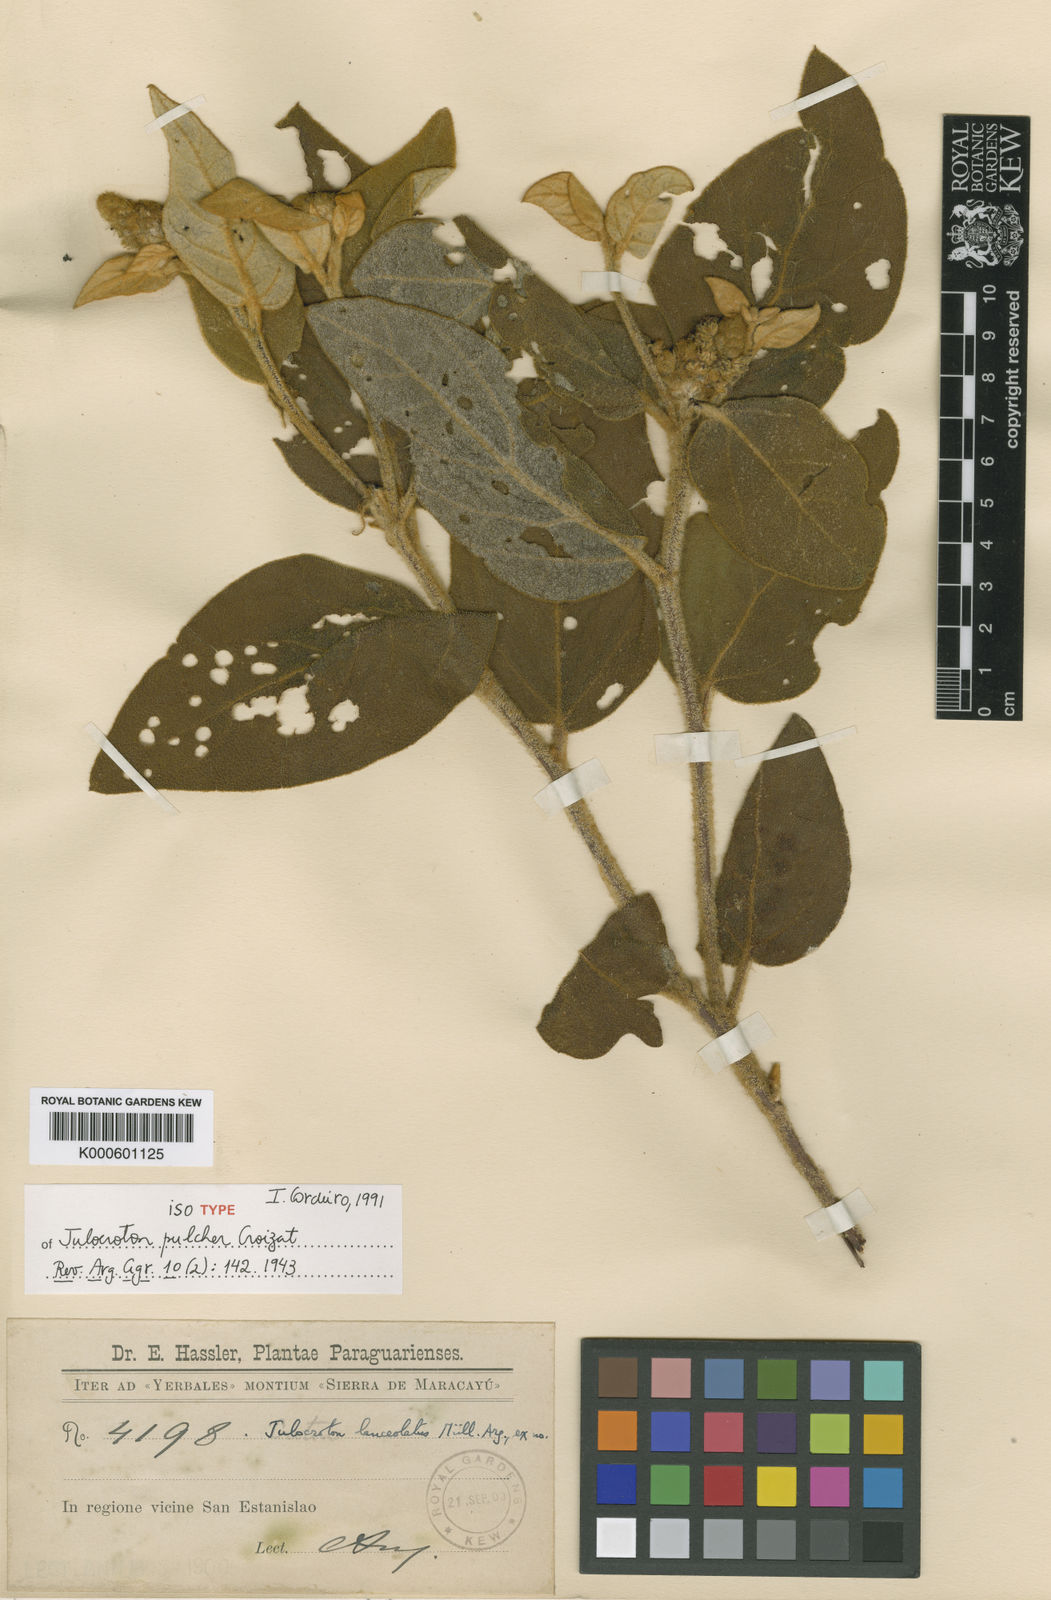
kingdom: Plantae
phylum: Tracheophyta
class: Magnoliopsida
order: Malpighiales
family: Euphorbiaceae
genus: Croton
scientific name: Croton rutilus
